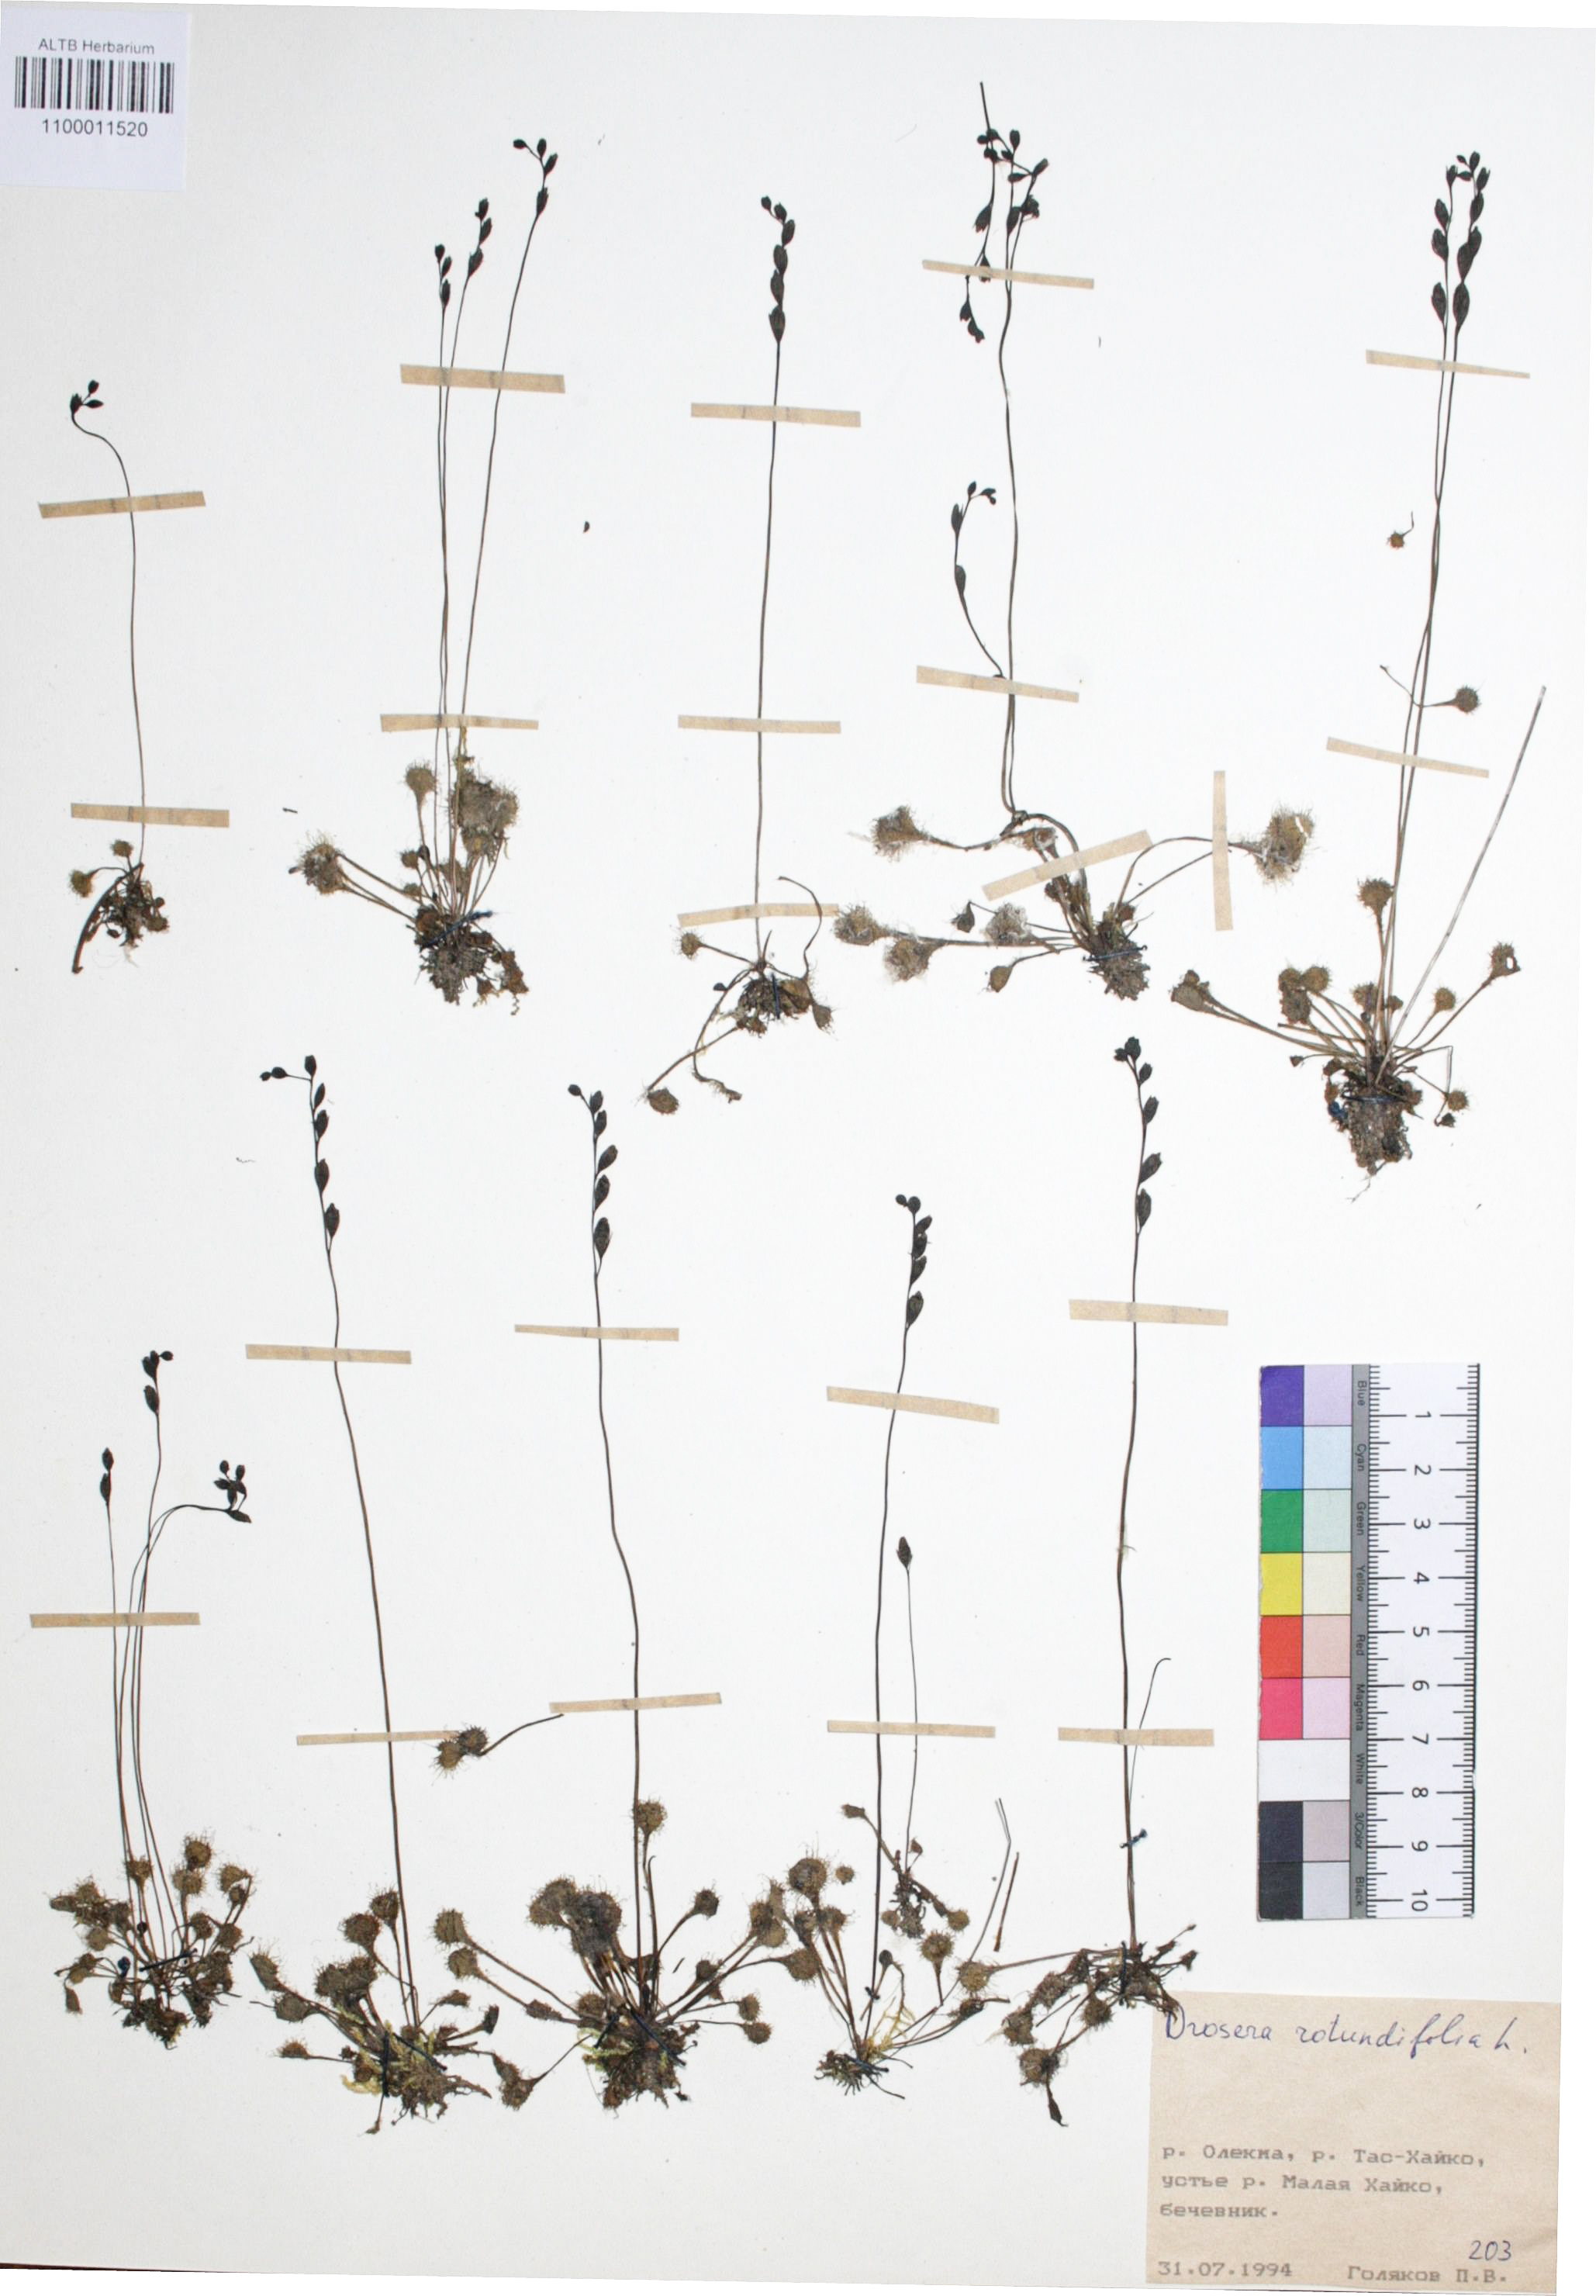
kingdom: Plantae
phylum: Tracheophyta
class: Magnoliopsida
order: Caryophyllales
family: Droseraceae
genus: Drosera
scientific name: Drosera rotundifolia
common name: Round-leaved sundew
